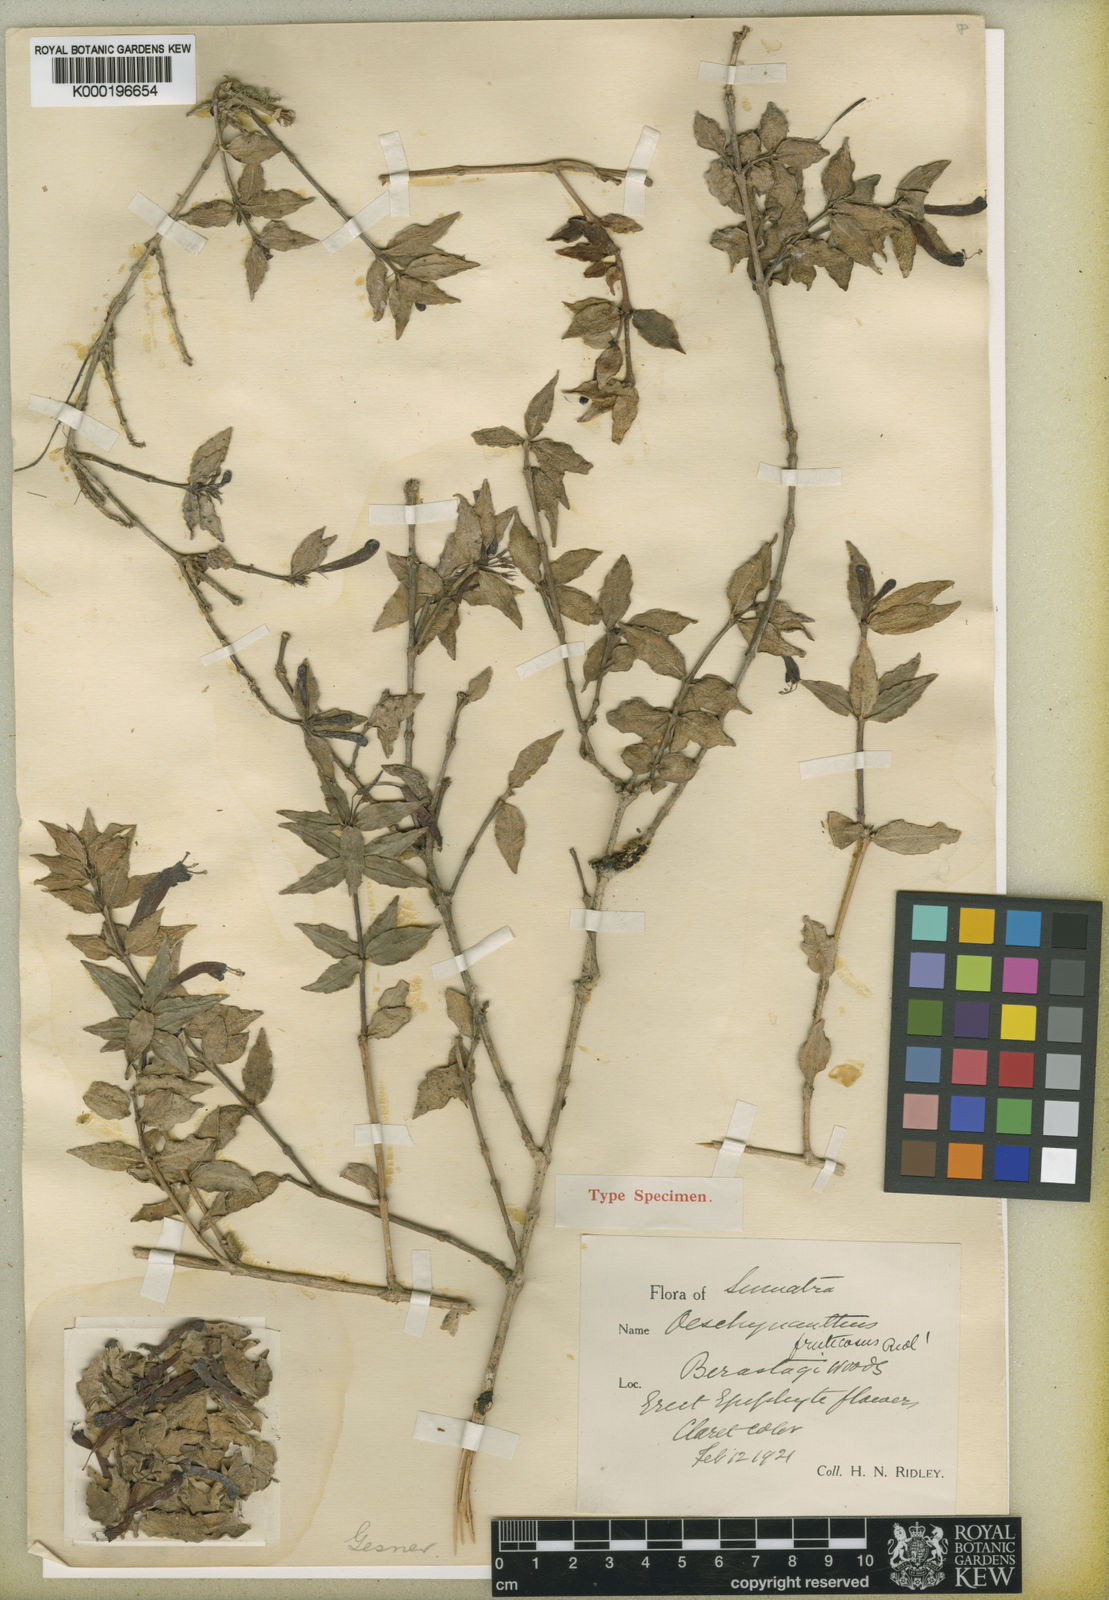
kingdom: Plantae
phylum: Tracheophyta
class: Magnoliopsida
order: Lamiales
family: Gesneriaceae
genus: Aeschynanthus
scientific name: Aeschynanthus fruticosus
